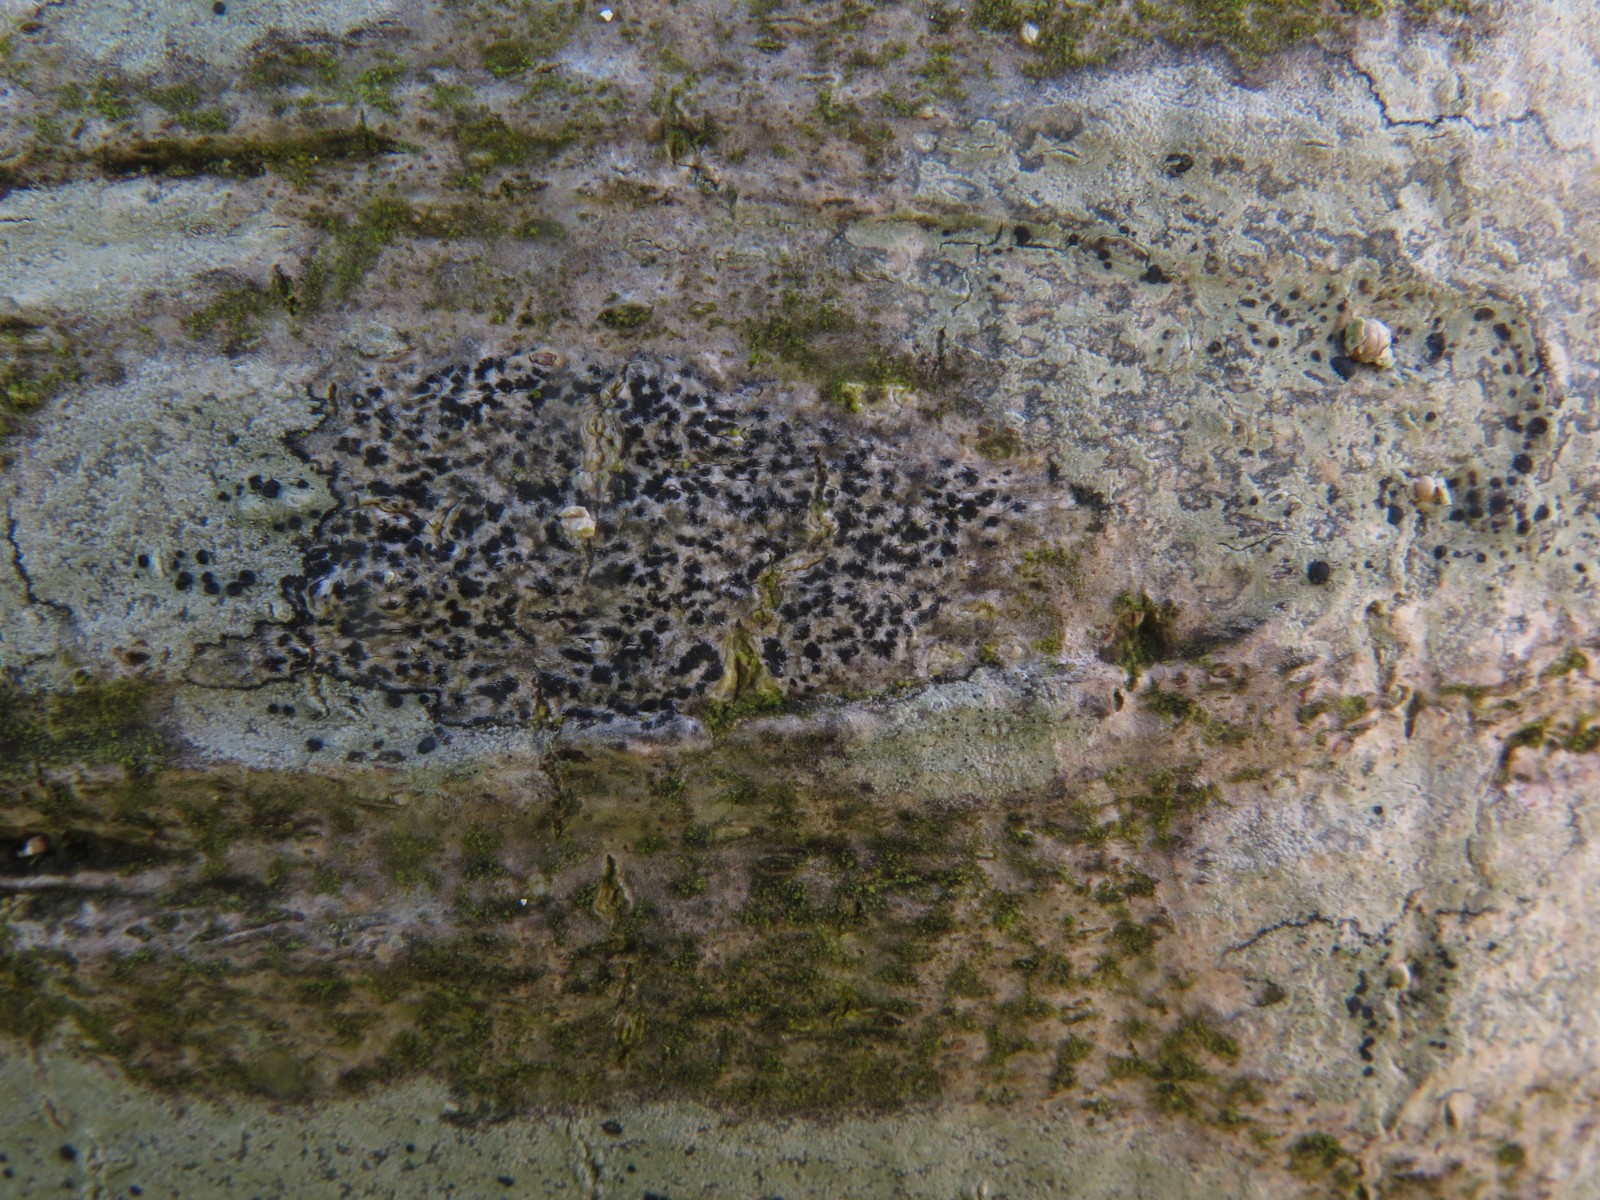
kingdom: Fungi
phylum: Ascomycota
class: Arthoniomycetes
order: Arthoniales
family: Arthoniaceae
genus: Arthonia
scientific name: Arthonia radiata
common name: stjerne-pletlav
